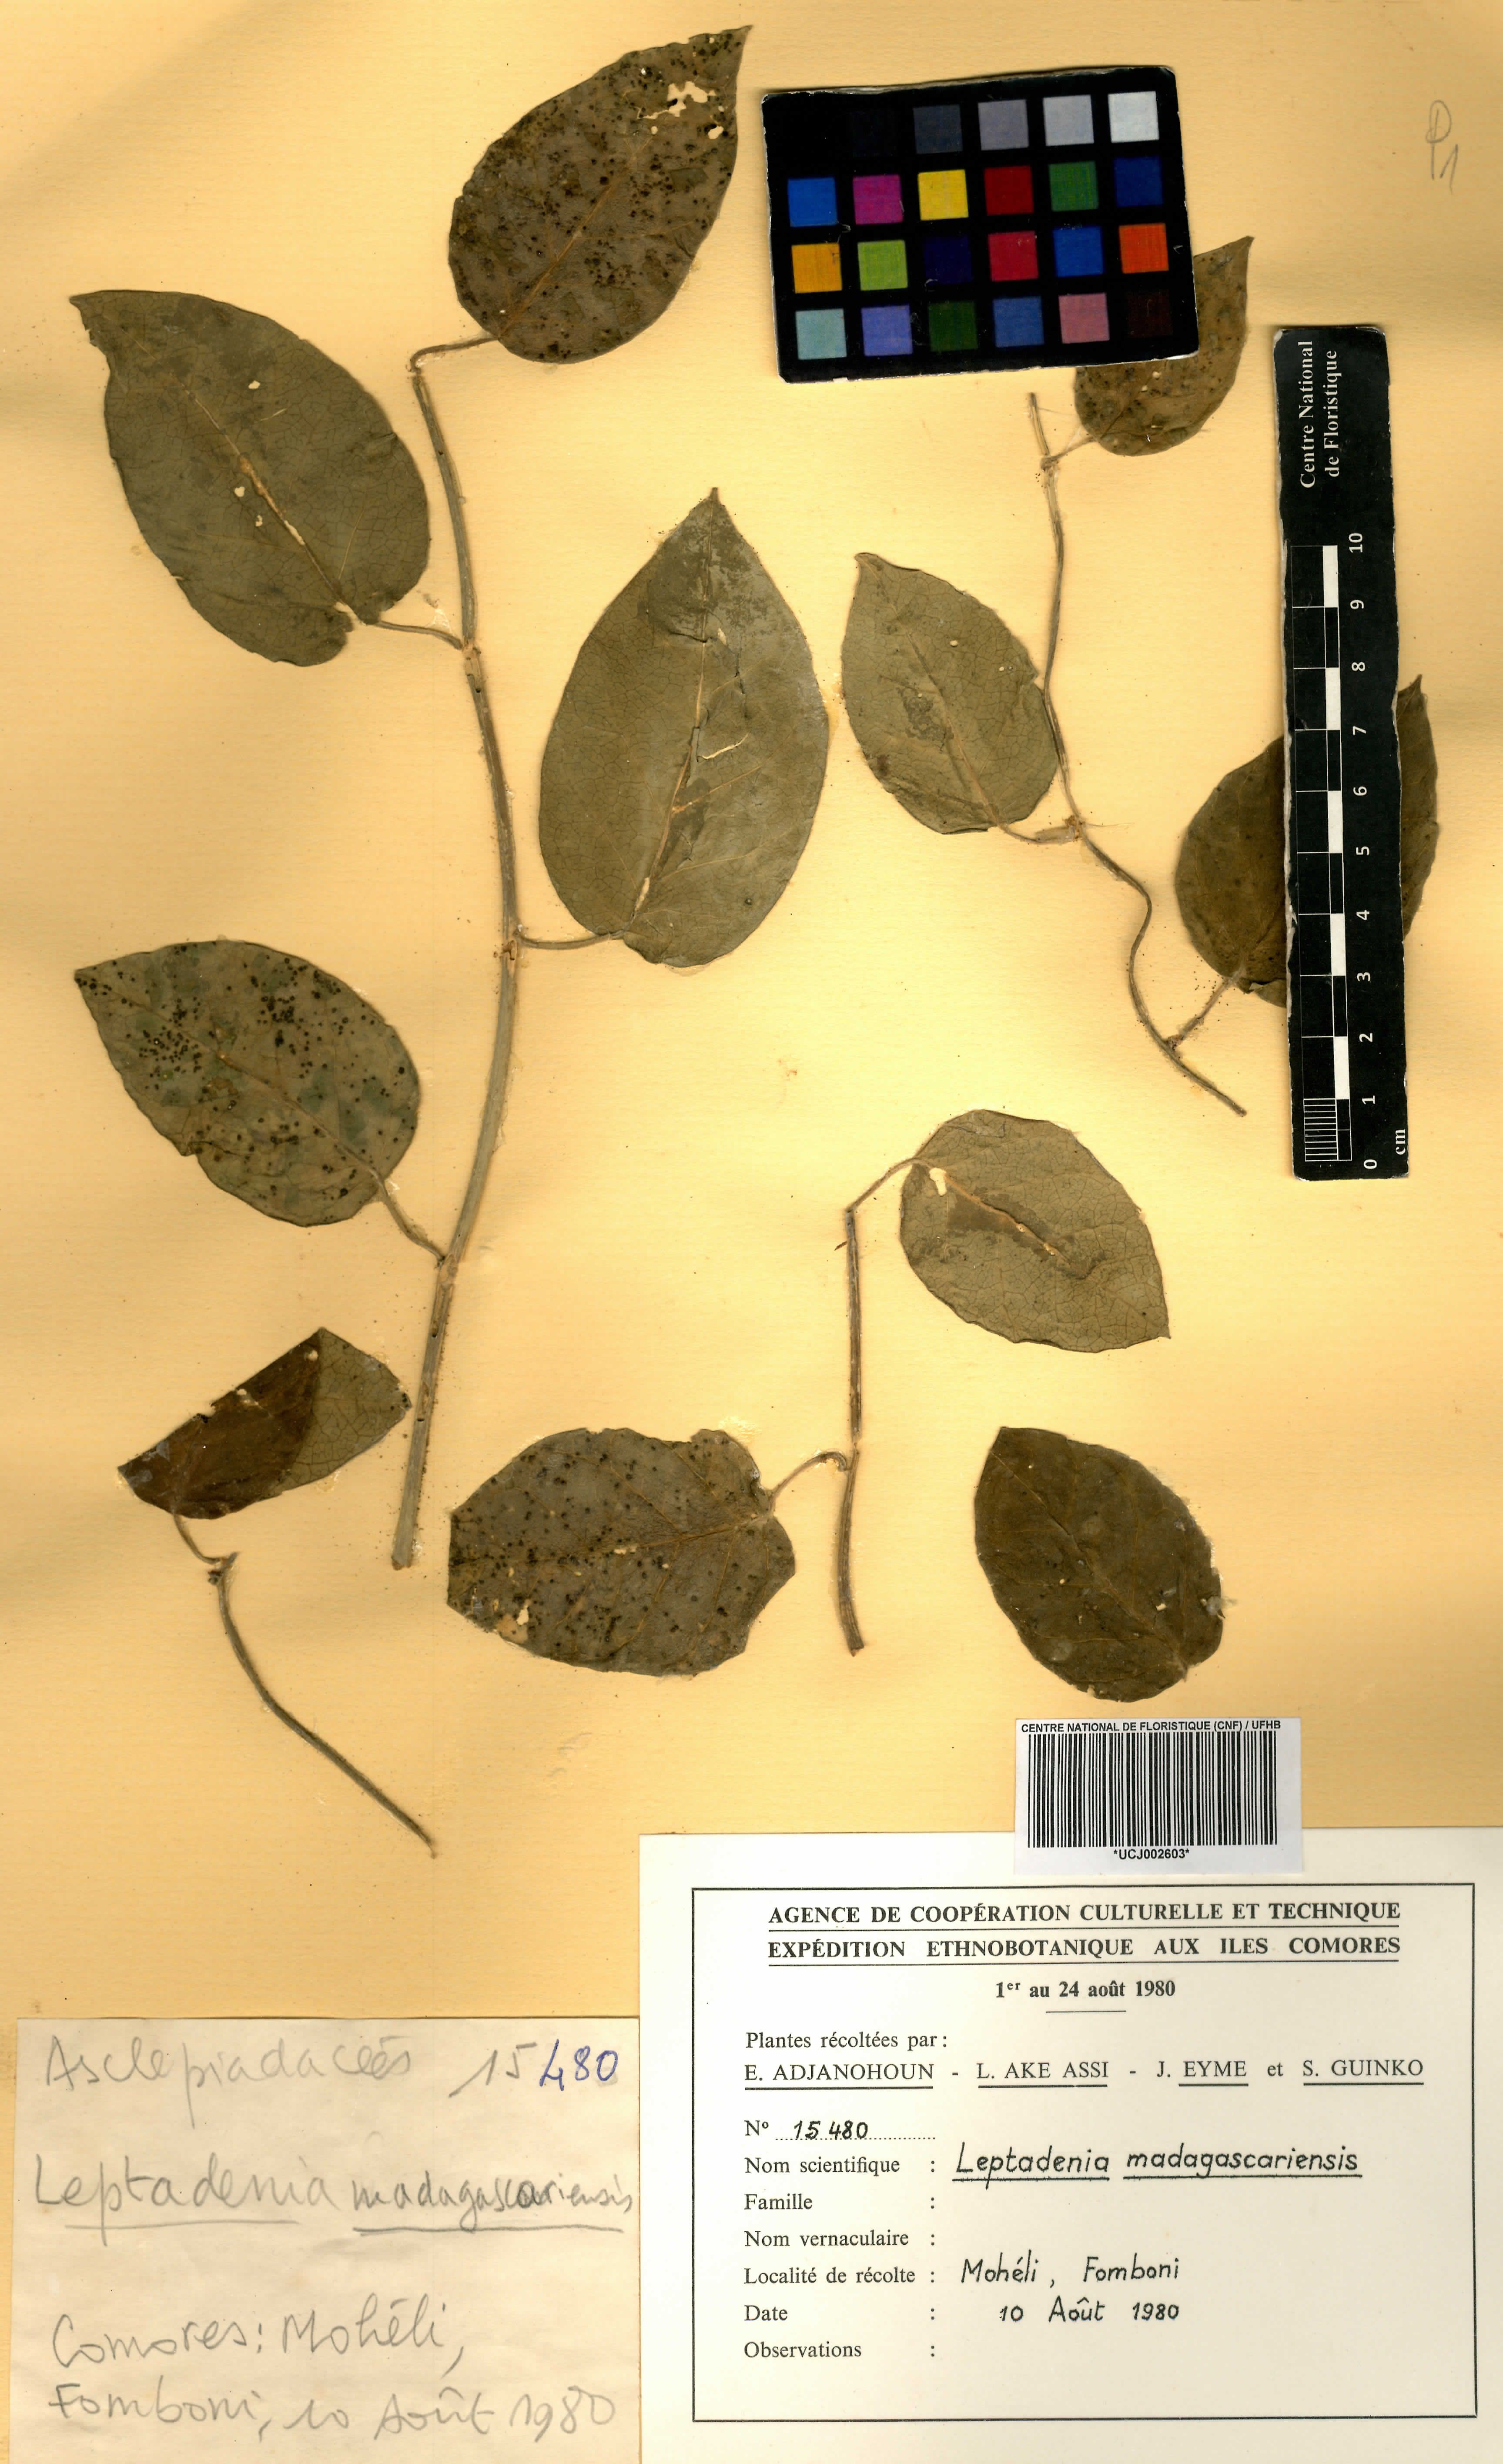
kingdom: Plantae
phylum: Tracheophyta
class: Magnoliopsida
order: Gentianales
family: Apocynaceae
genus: Leptadenia
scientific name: Leptadenia madagascariensis
